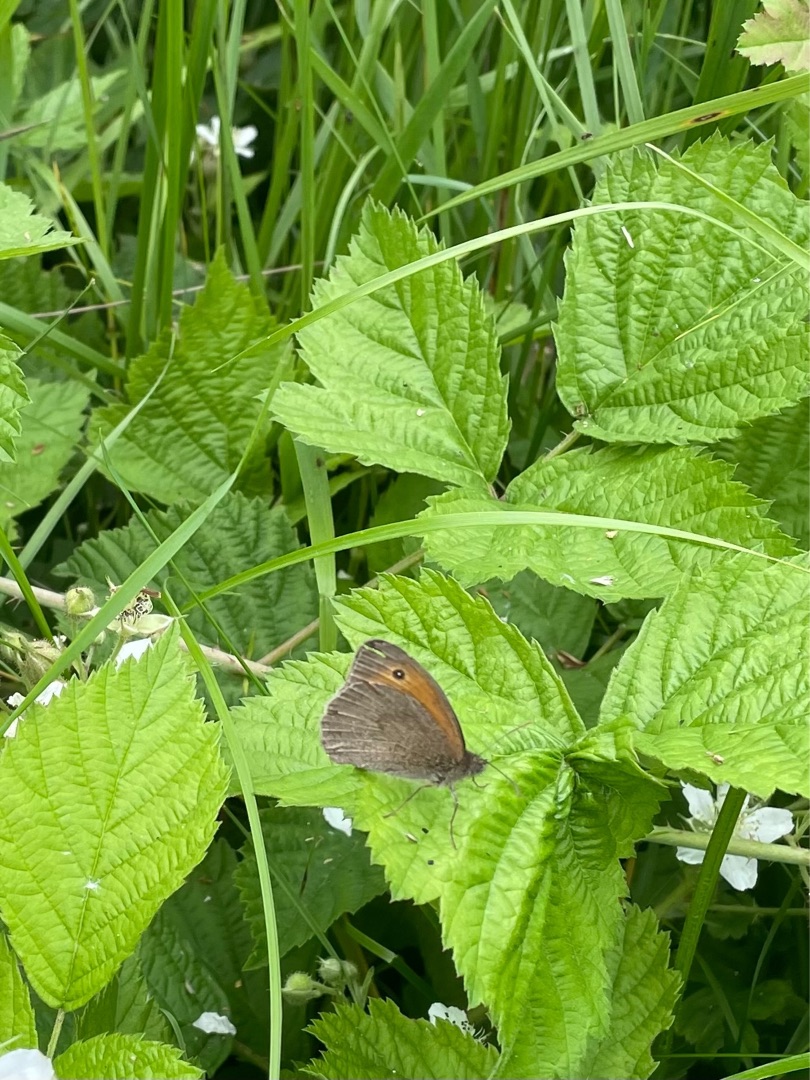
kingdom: Animalia
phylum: Arthropoda
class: Insecta
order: Lepidoptera
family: Nymphalidae
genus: Maniola
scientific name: Maniola jurtina
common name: Græsrandøje
